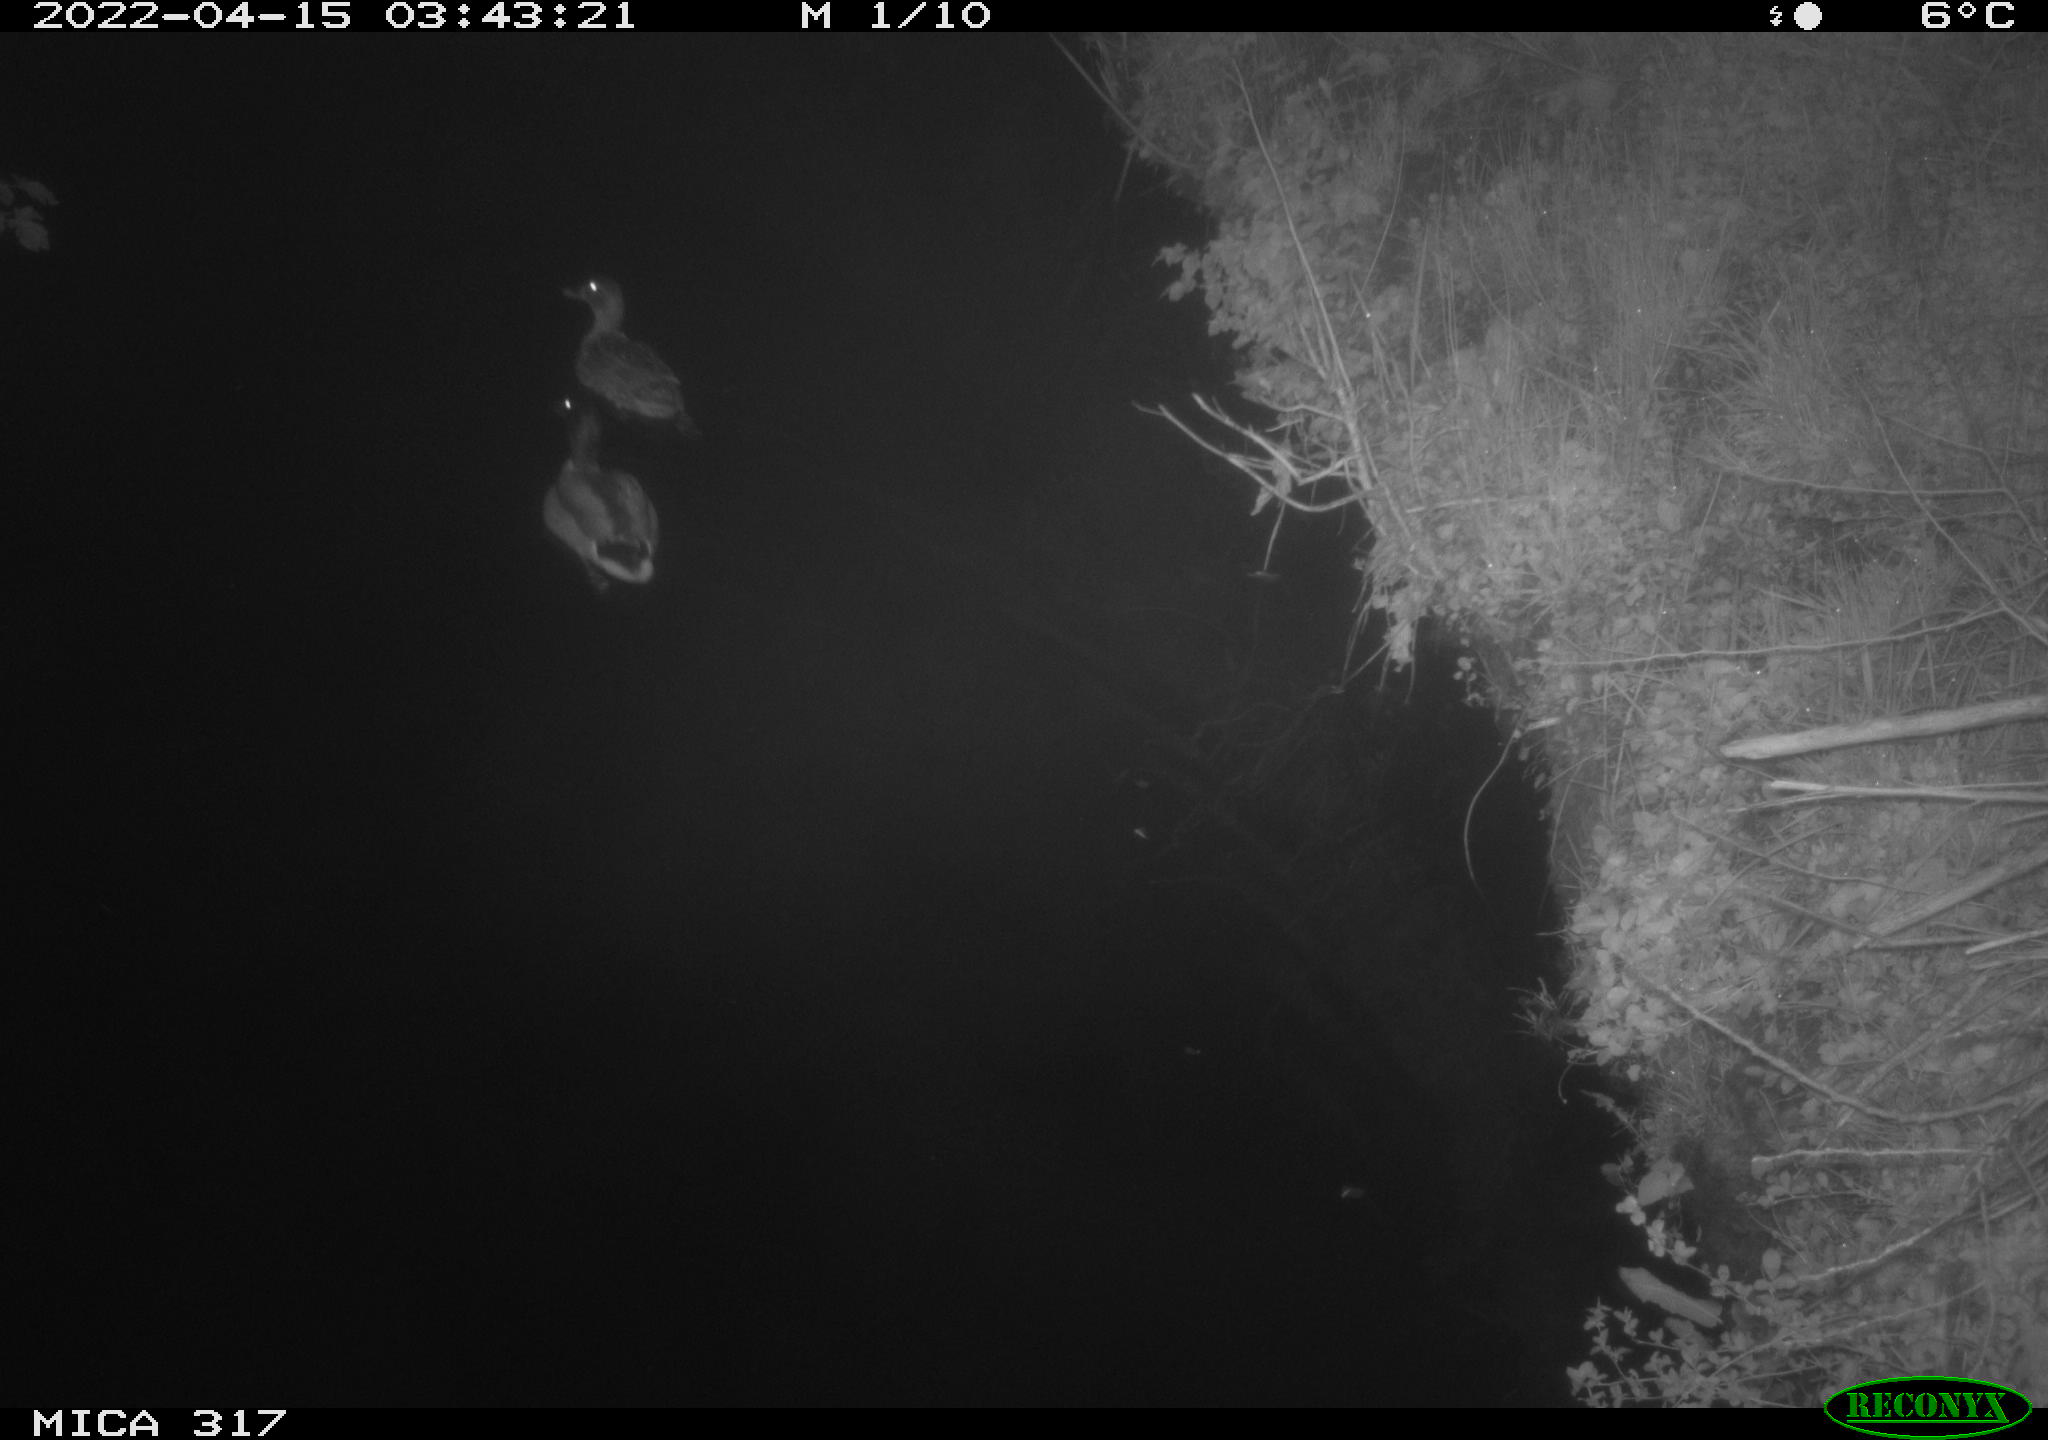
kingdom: Animalia
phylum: Chordata
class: Aves
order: Anseriformes
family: Anatidae
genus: Anas
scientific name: Anas platyrhynchos
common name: Mallard
